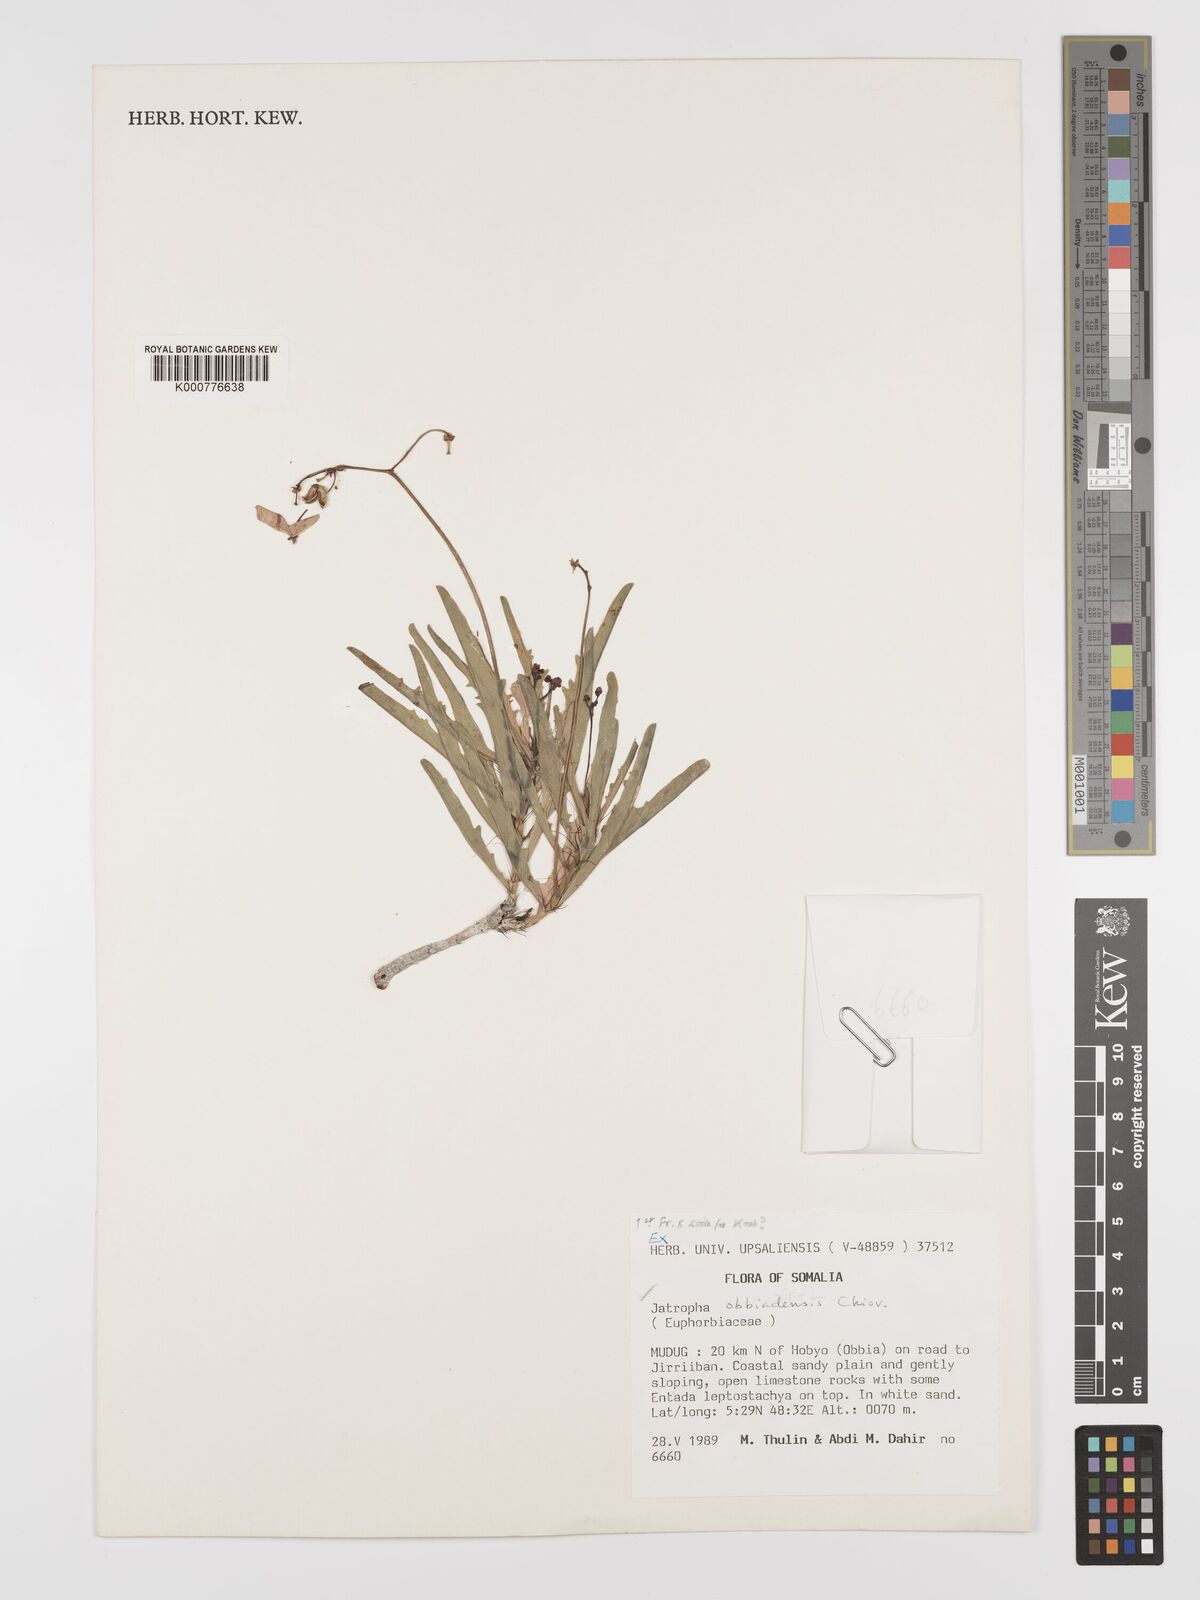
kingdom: Plantae
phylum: Tracheophyta
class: Magnoliopsida
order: Malpighiales
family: Euphorbiaceae
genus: Jatropha
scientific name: Jatropha obbiadensis
